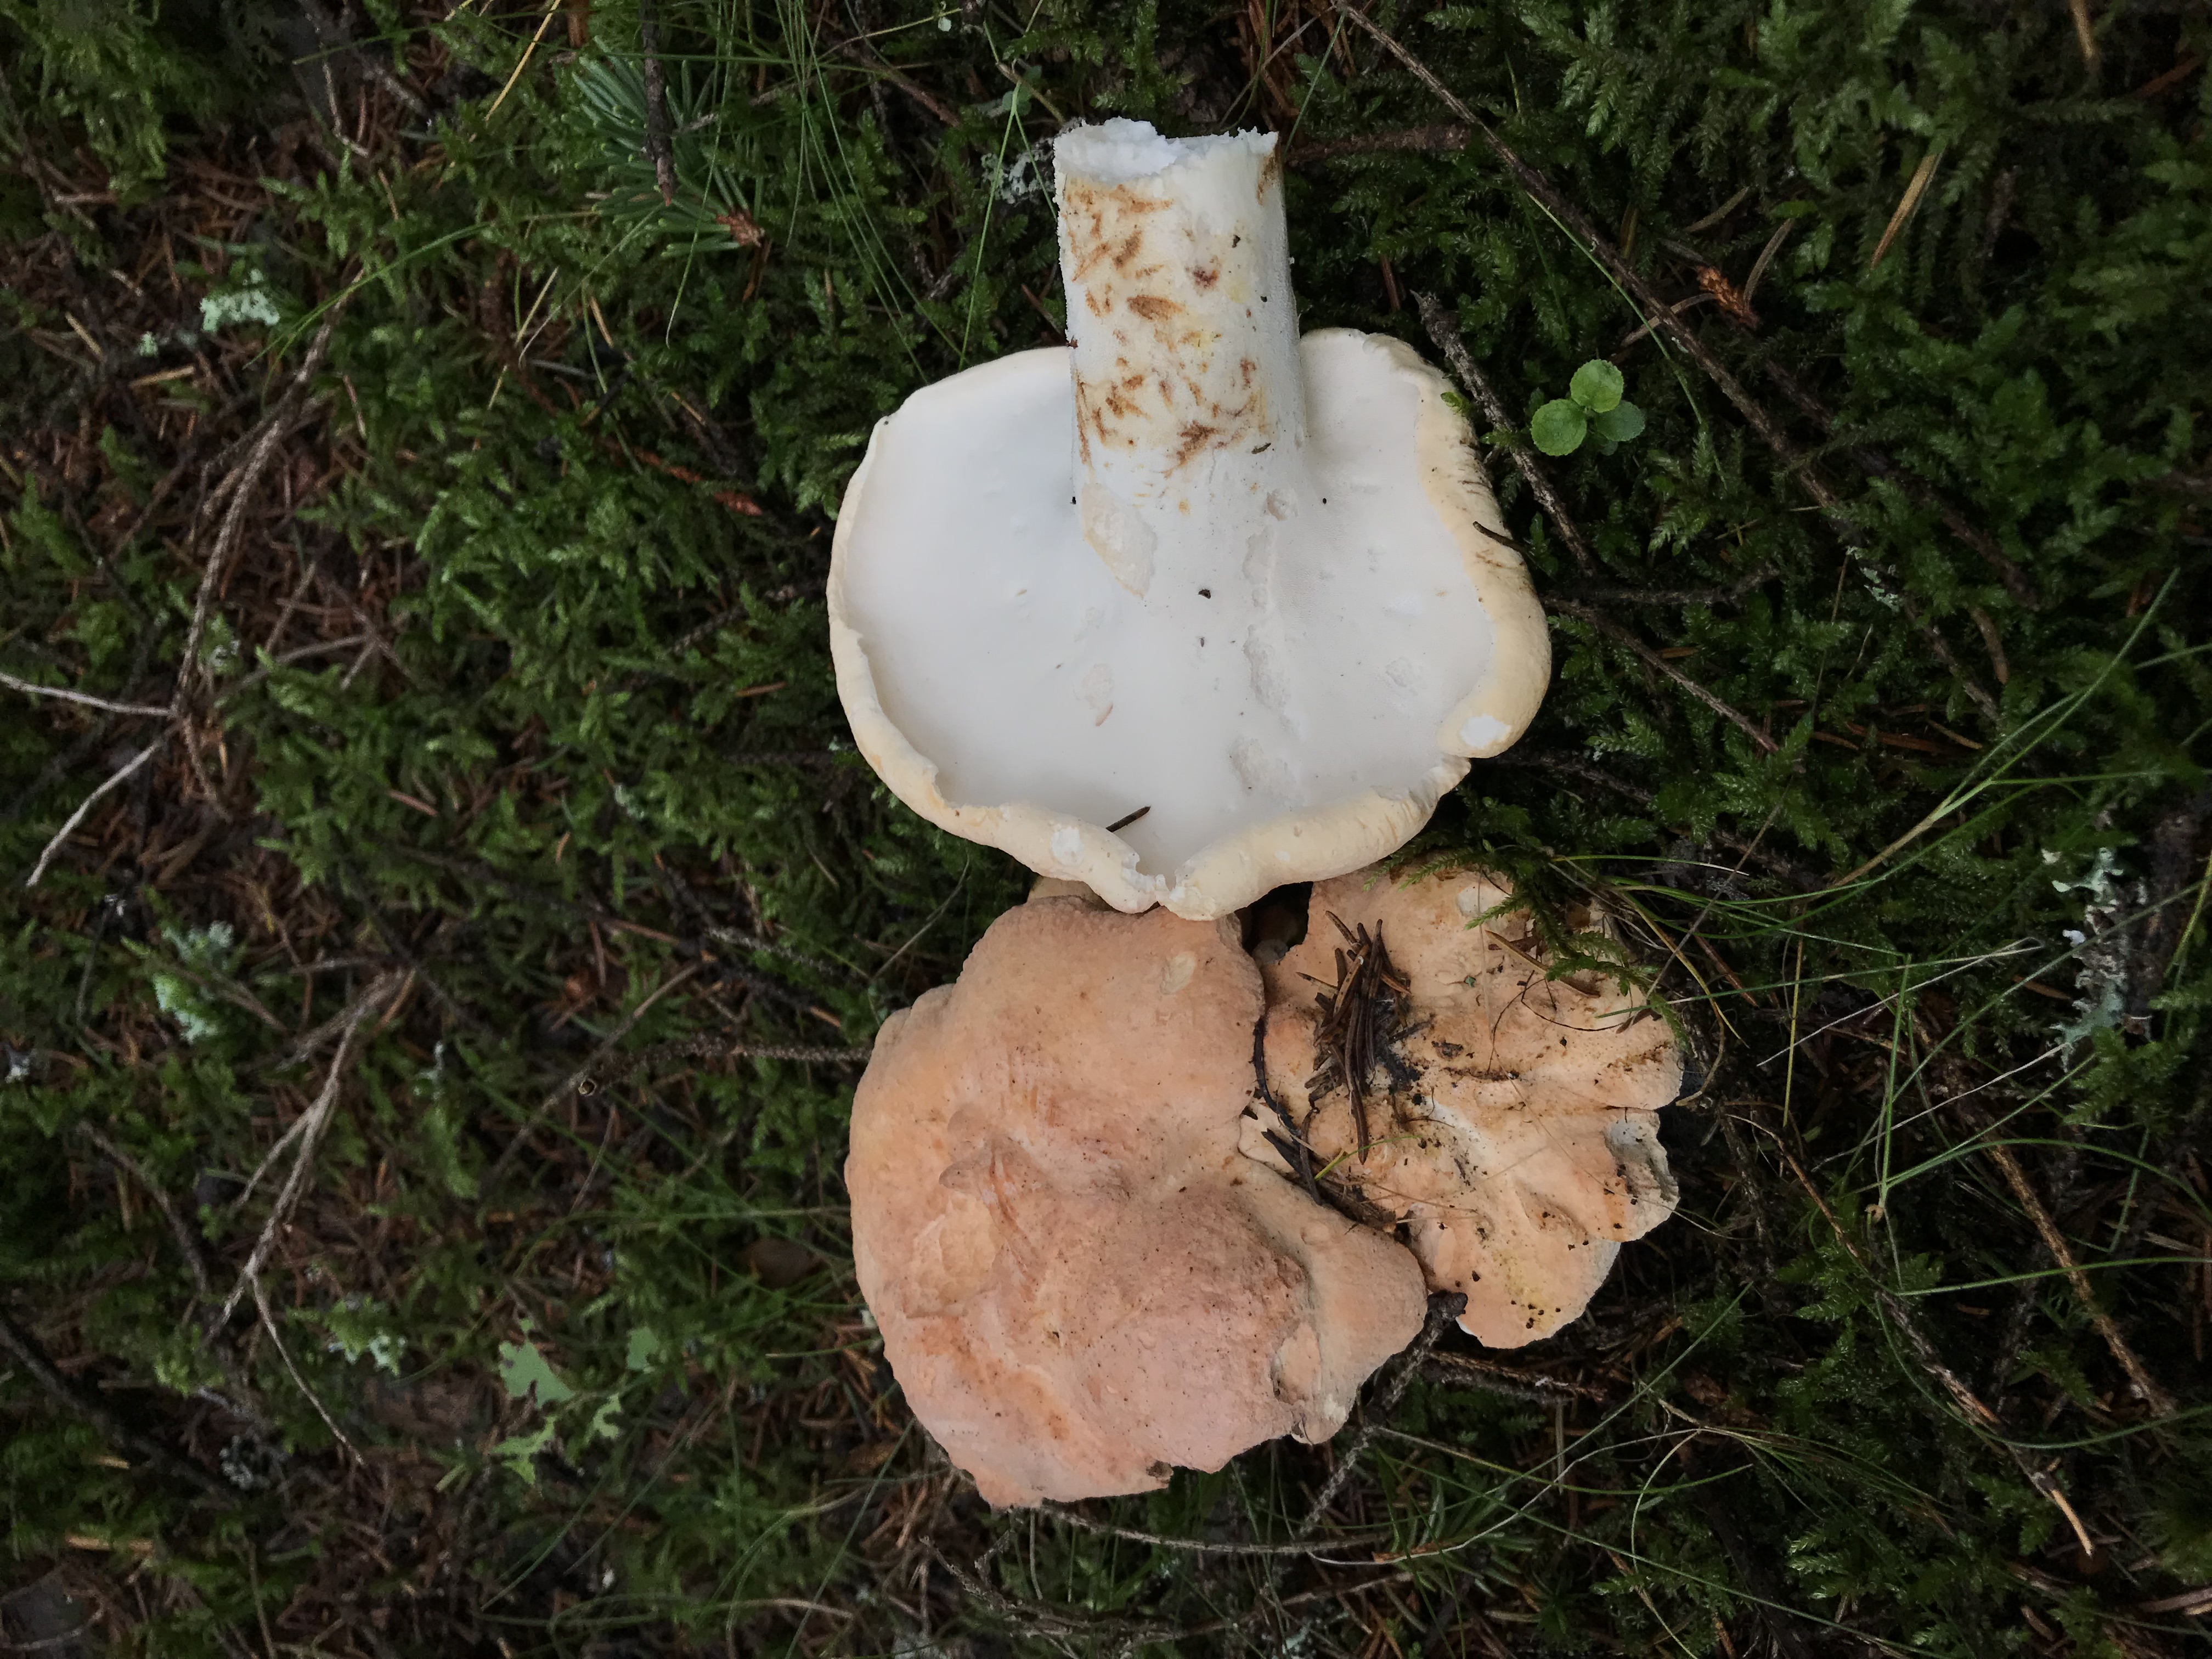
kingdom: Fungi
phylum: Basidiomycota
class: Agaricomycetes
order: Russulales
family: Albatrellaceae
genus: Albatrellopsis
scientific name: Albatrellopsis confluens
